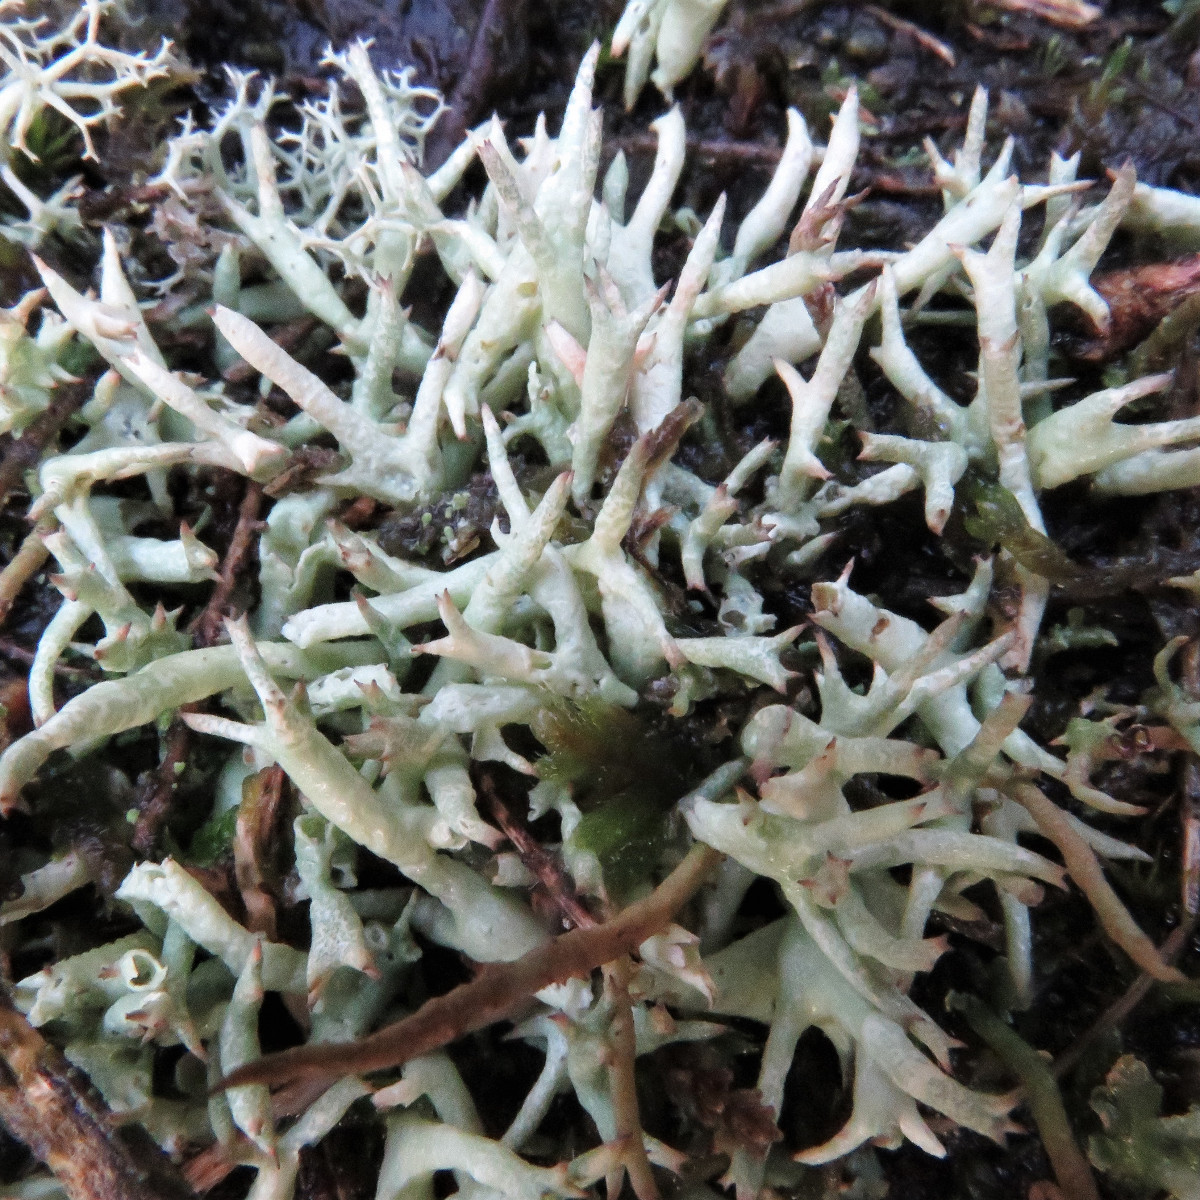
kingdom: Fungi
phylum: Ascomycota
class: Lecanoromycetes
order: Lecanorales
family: Cladoniaceae
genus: Cladonia
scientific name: Cladonia uncialis
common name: pigget bægerlav
